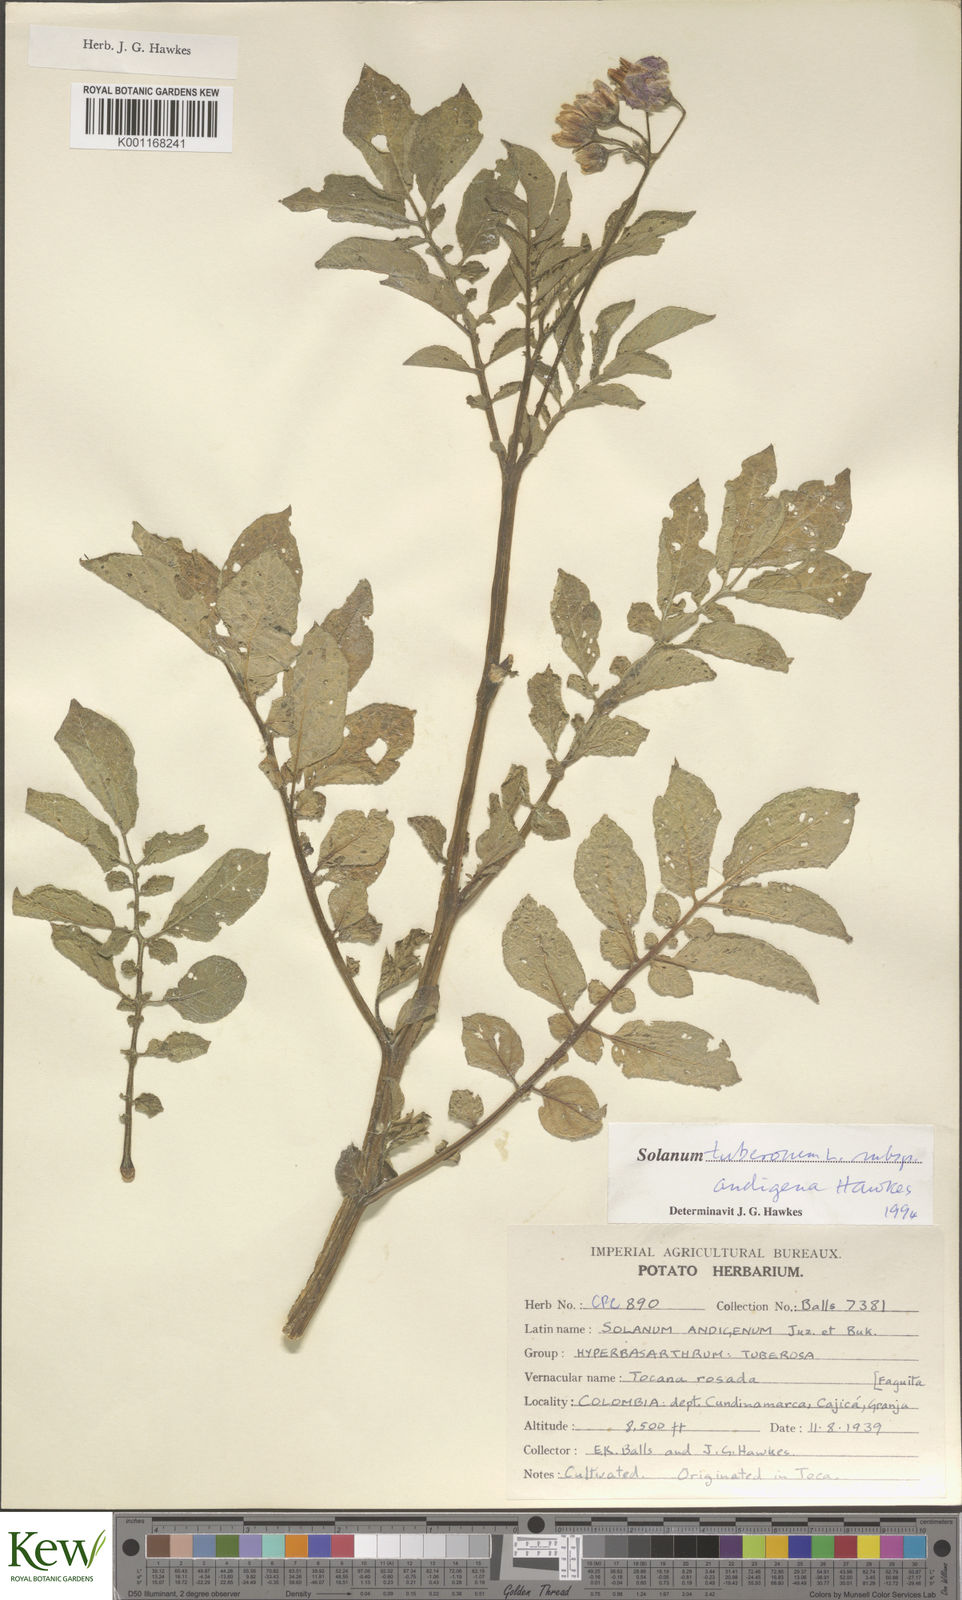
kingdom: Plantae
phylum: Tracheophyta
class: Magnoliopsida
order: Solanales
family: Solanaceae
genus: Solanum
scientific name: Solanum tuberosum
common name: Potato
